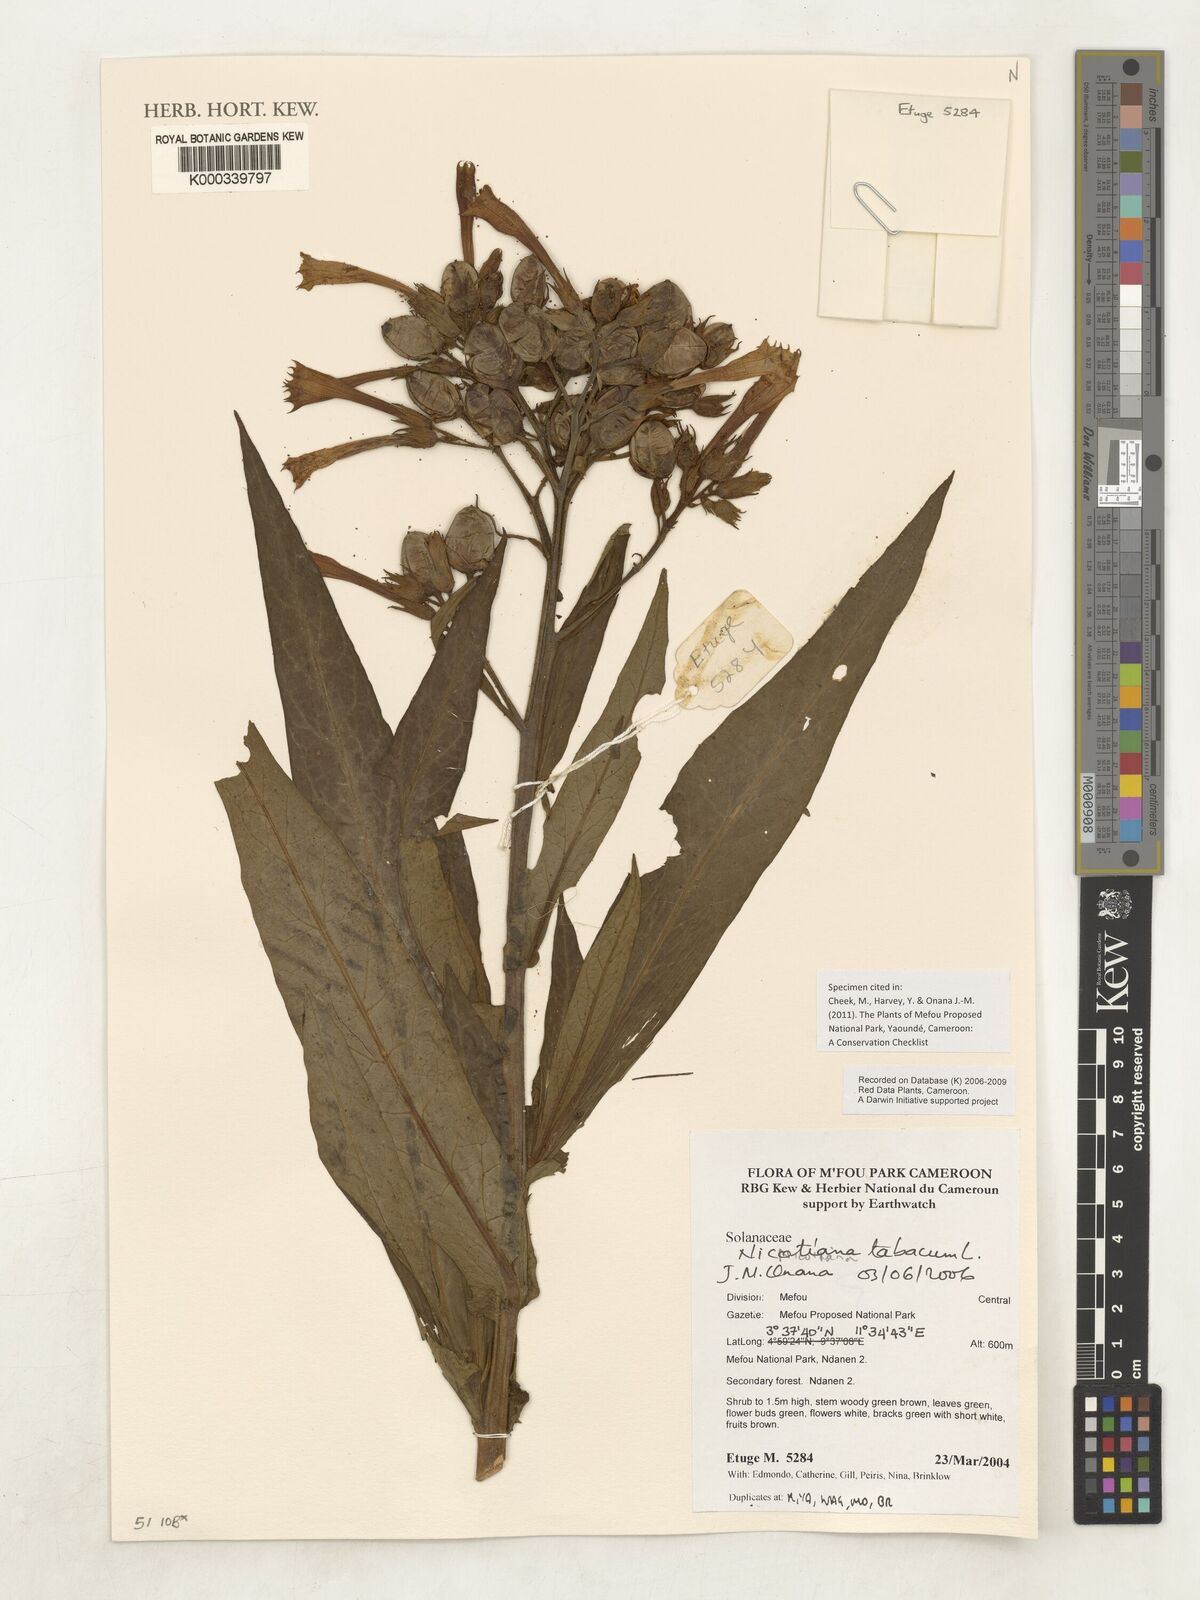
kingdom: Plantae
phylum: Tracheophyta
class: Magnoliopsida
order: Solanales
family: Solanaceae
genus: Nicotiana
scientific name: Nicotiana tabacum
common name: Tobacco
